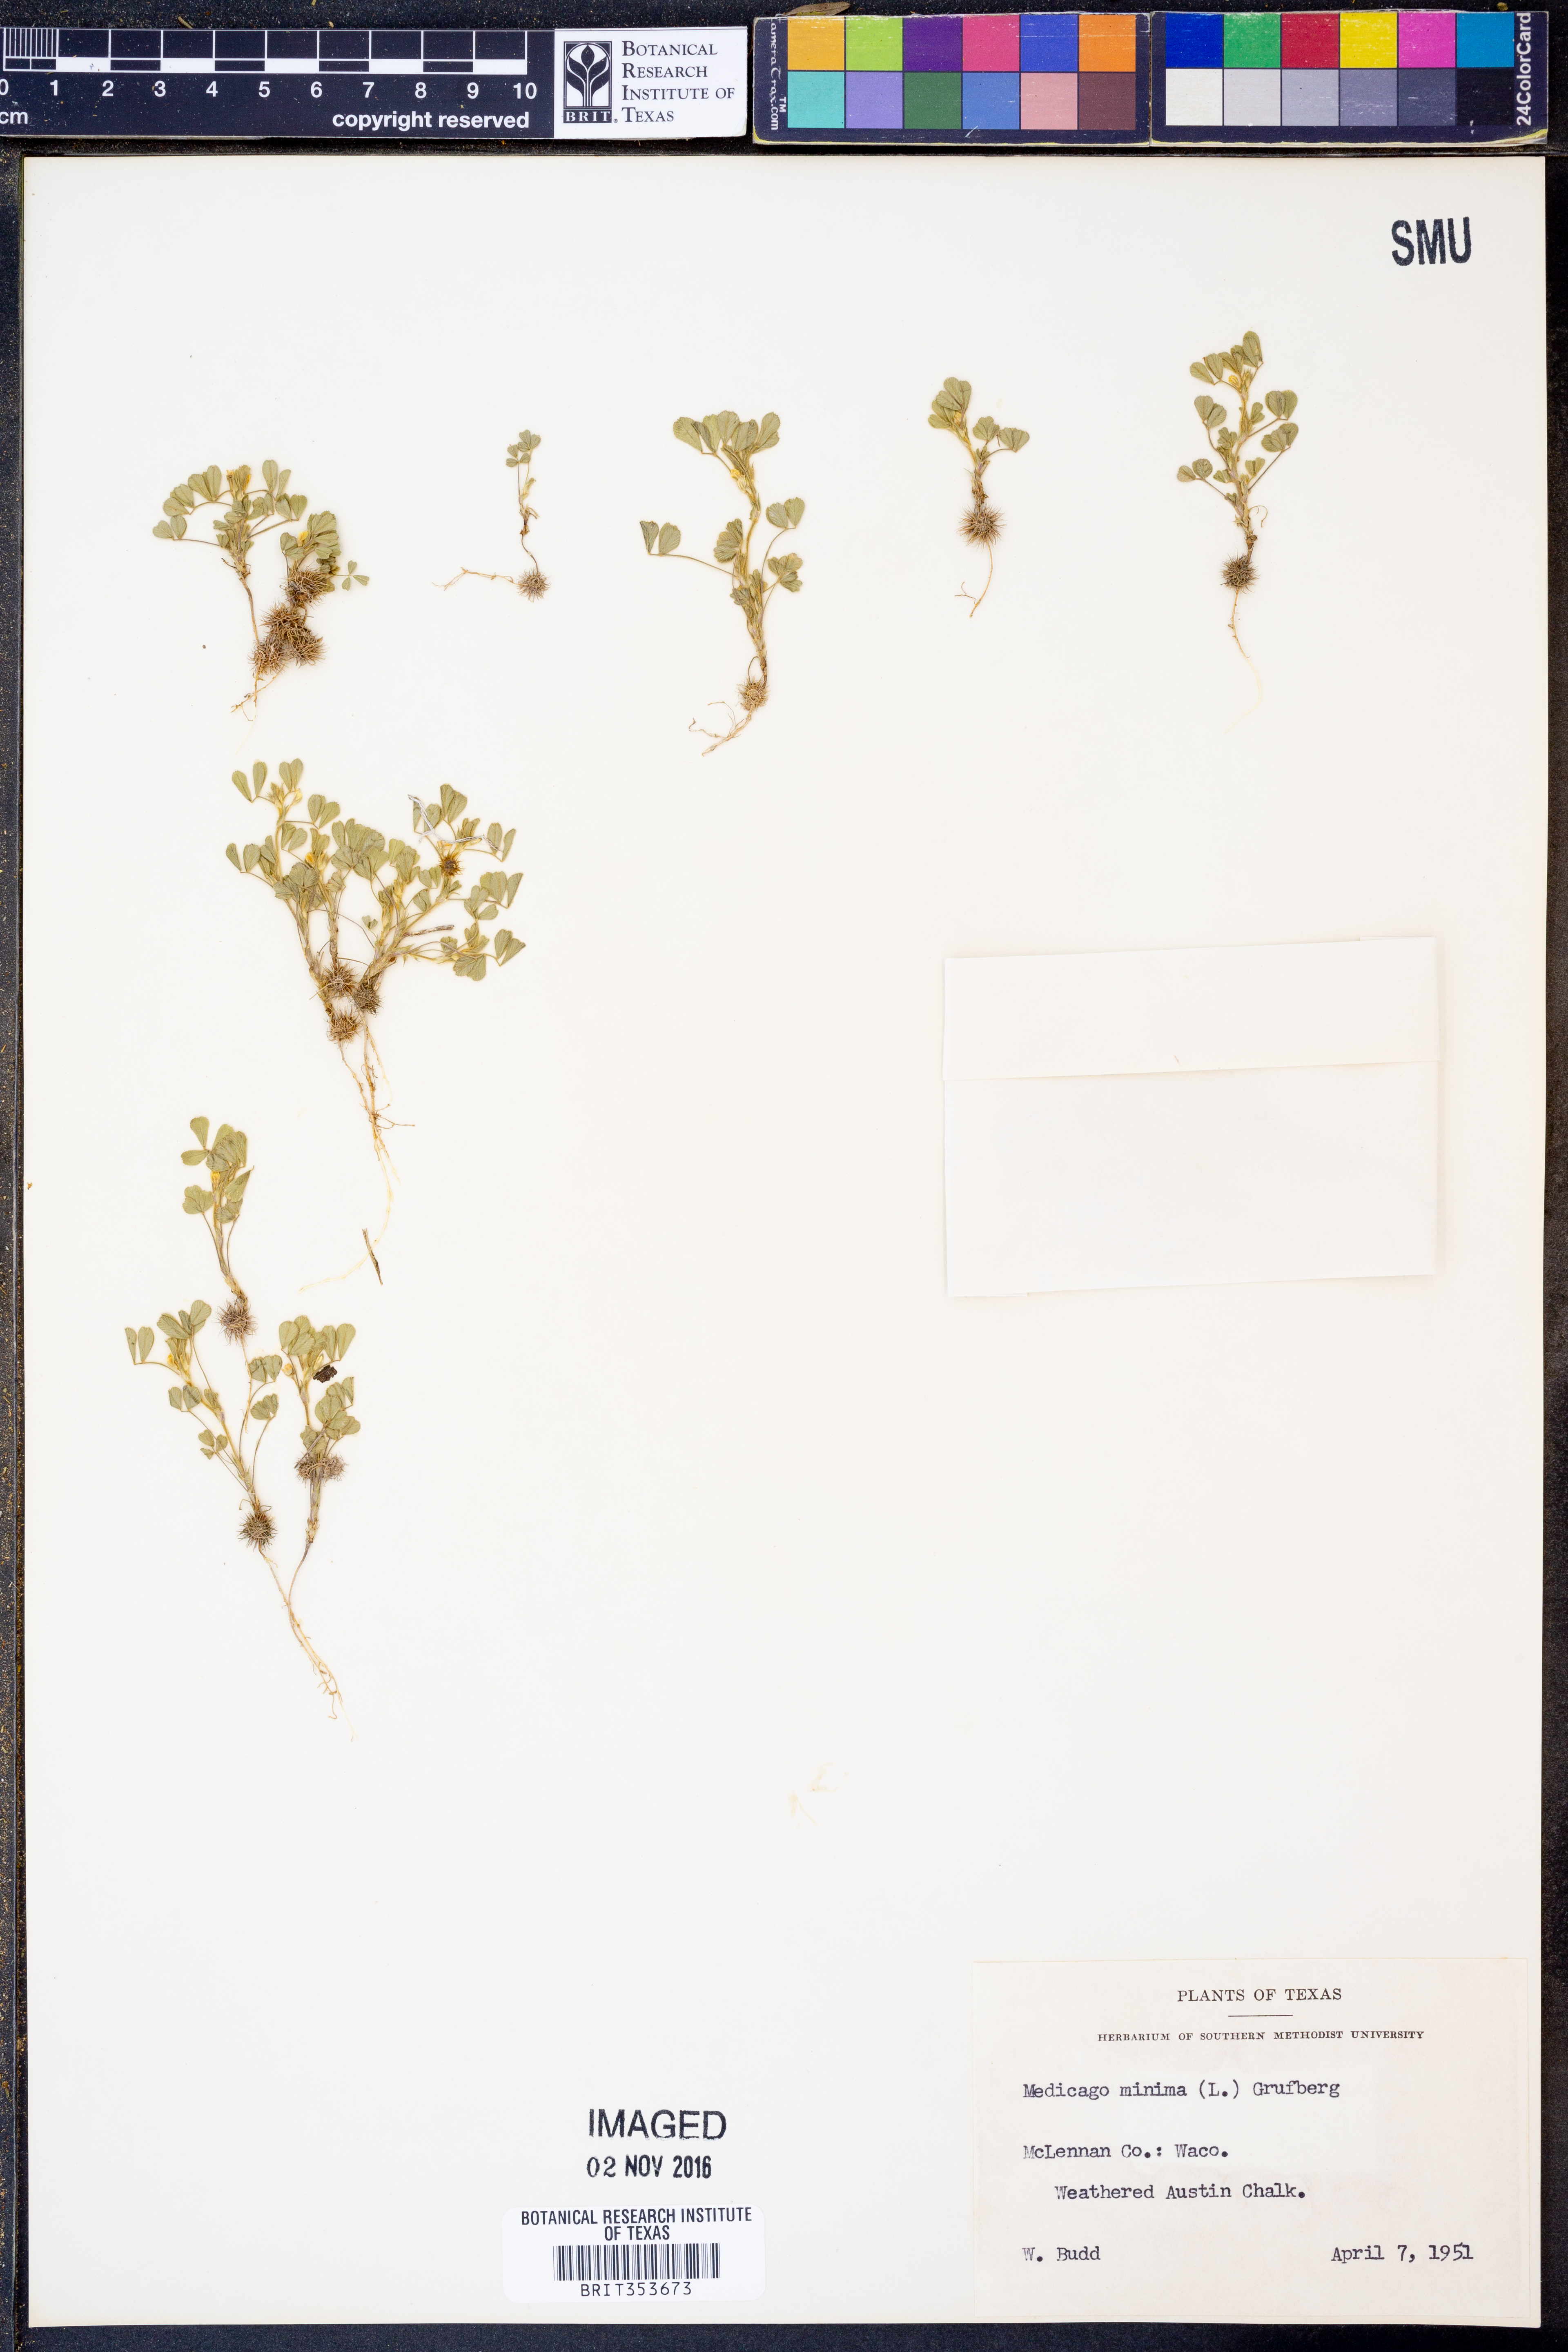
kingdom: Plantae
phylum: Tracheophyta
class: Magnoliopsida
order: Fabales
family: Fabaceae
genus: Medicago
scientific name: Medicago minima
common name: Little bur-clover
